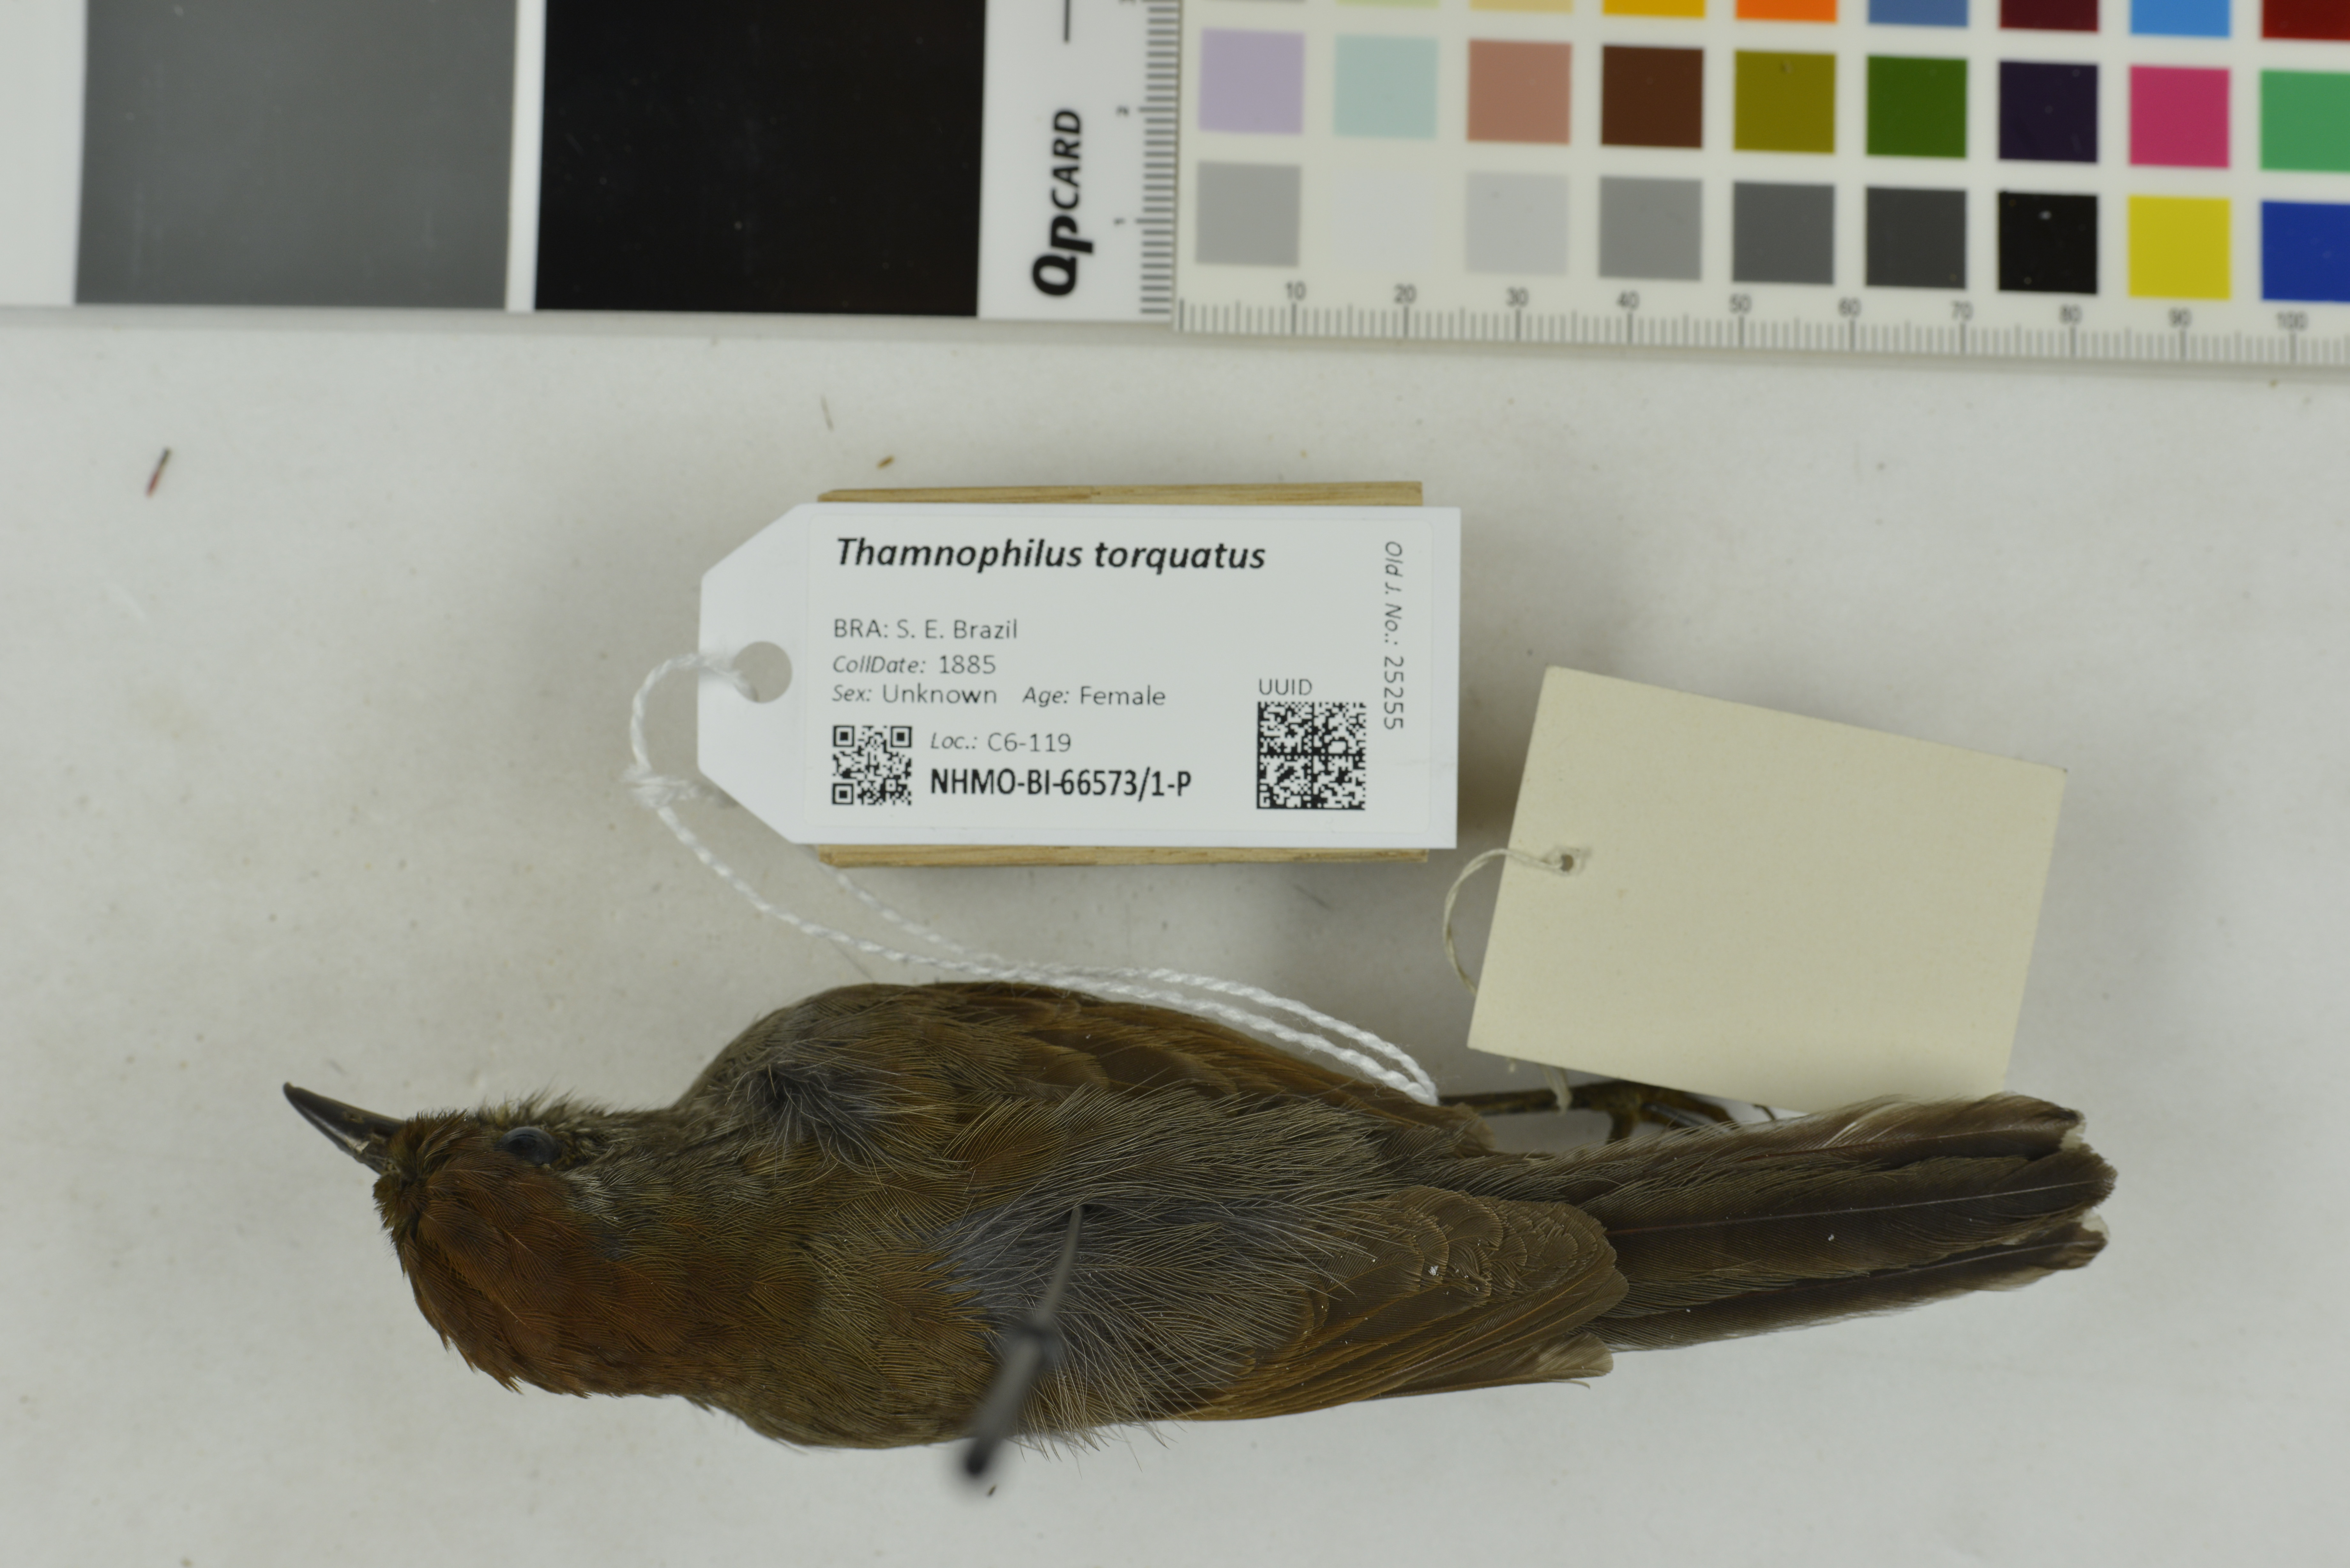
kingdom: Animalia
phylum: Chordata
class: Aves
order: Passeriformes
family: Thamnophilidae
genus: Thamnophilus
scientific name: Thamnophilus torquatus
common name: Rufous-winged antshrike
